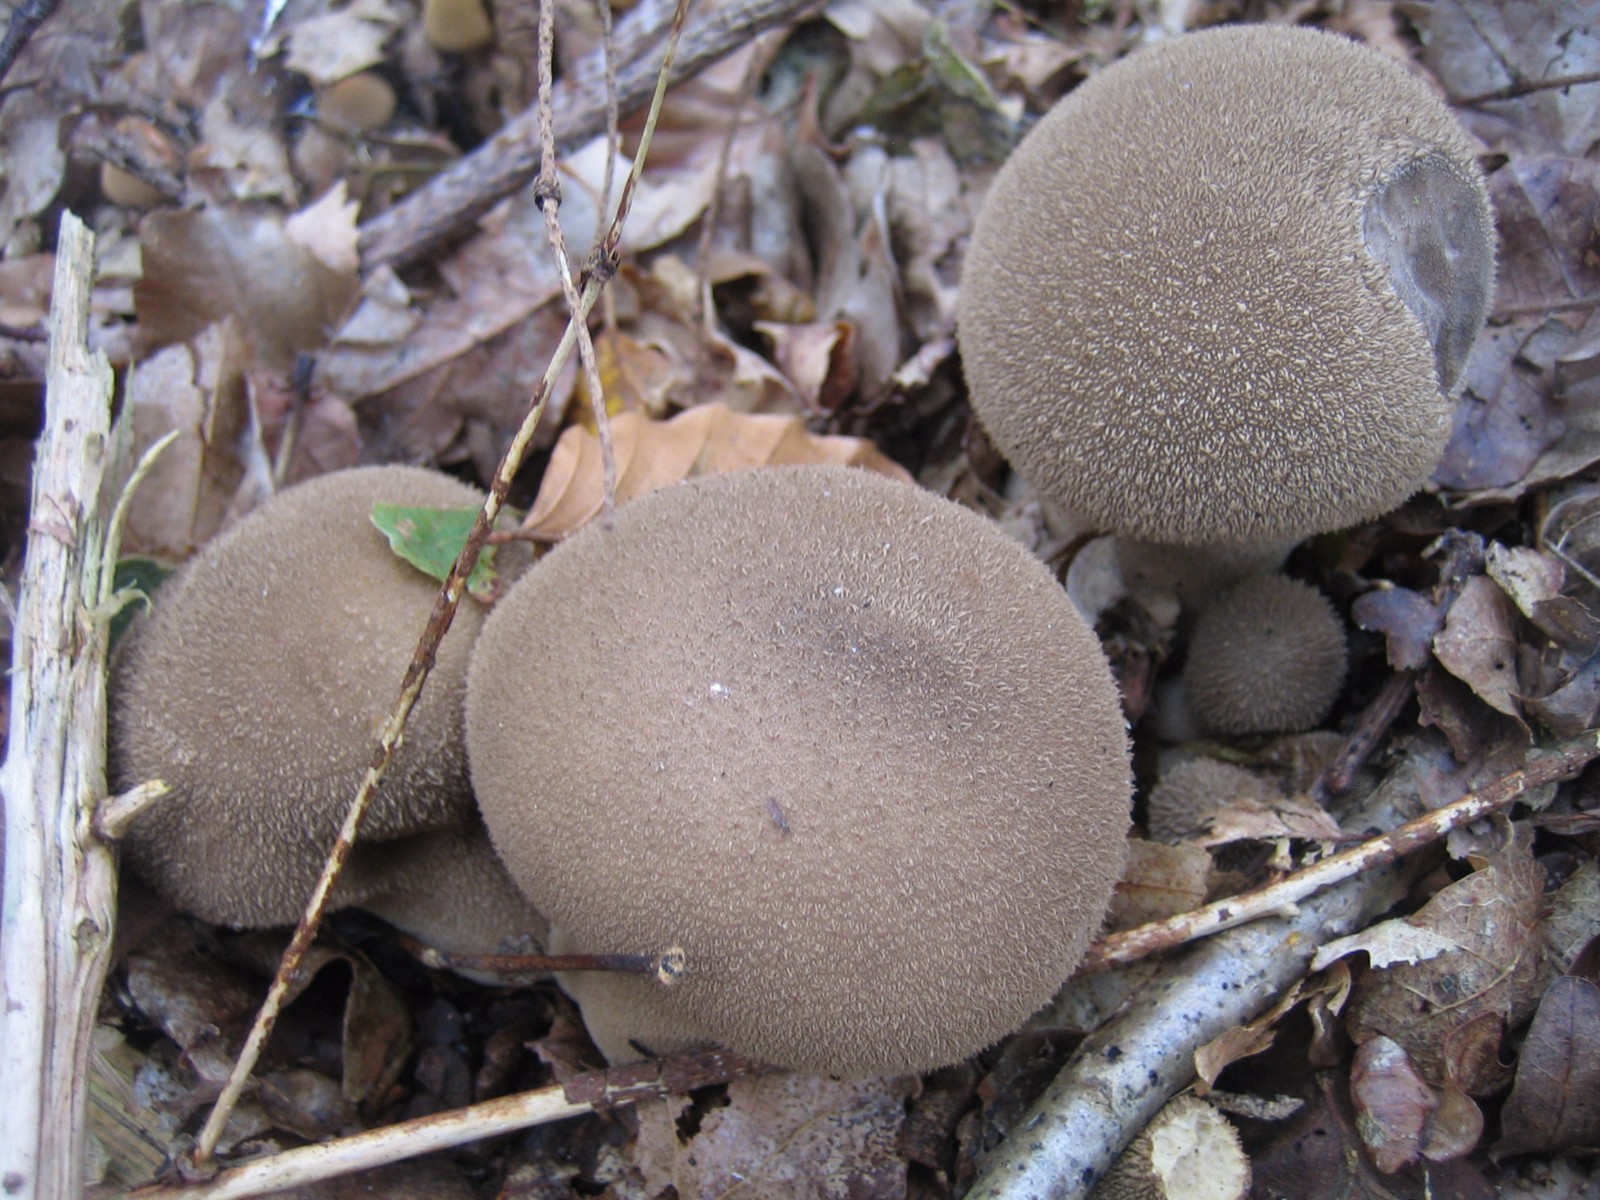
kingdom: Fungi
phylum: Basidiomycota
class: Agaricomycetes
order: Agaricales
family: Agaricaceae
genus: Lycoperdon
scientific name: Lycoperdon
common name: støvbold
